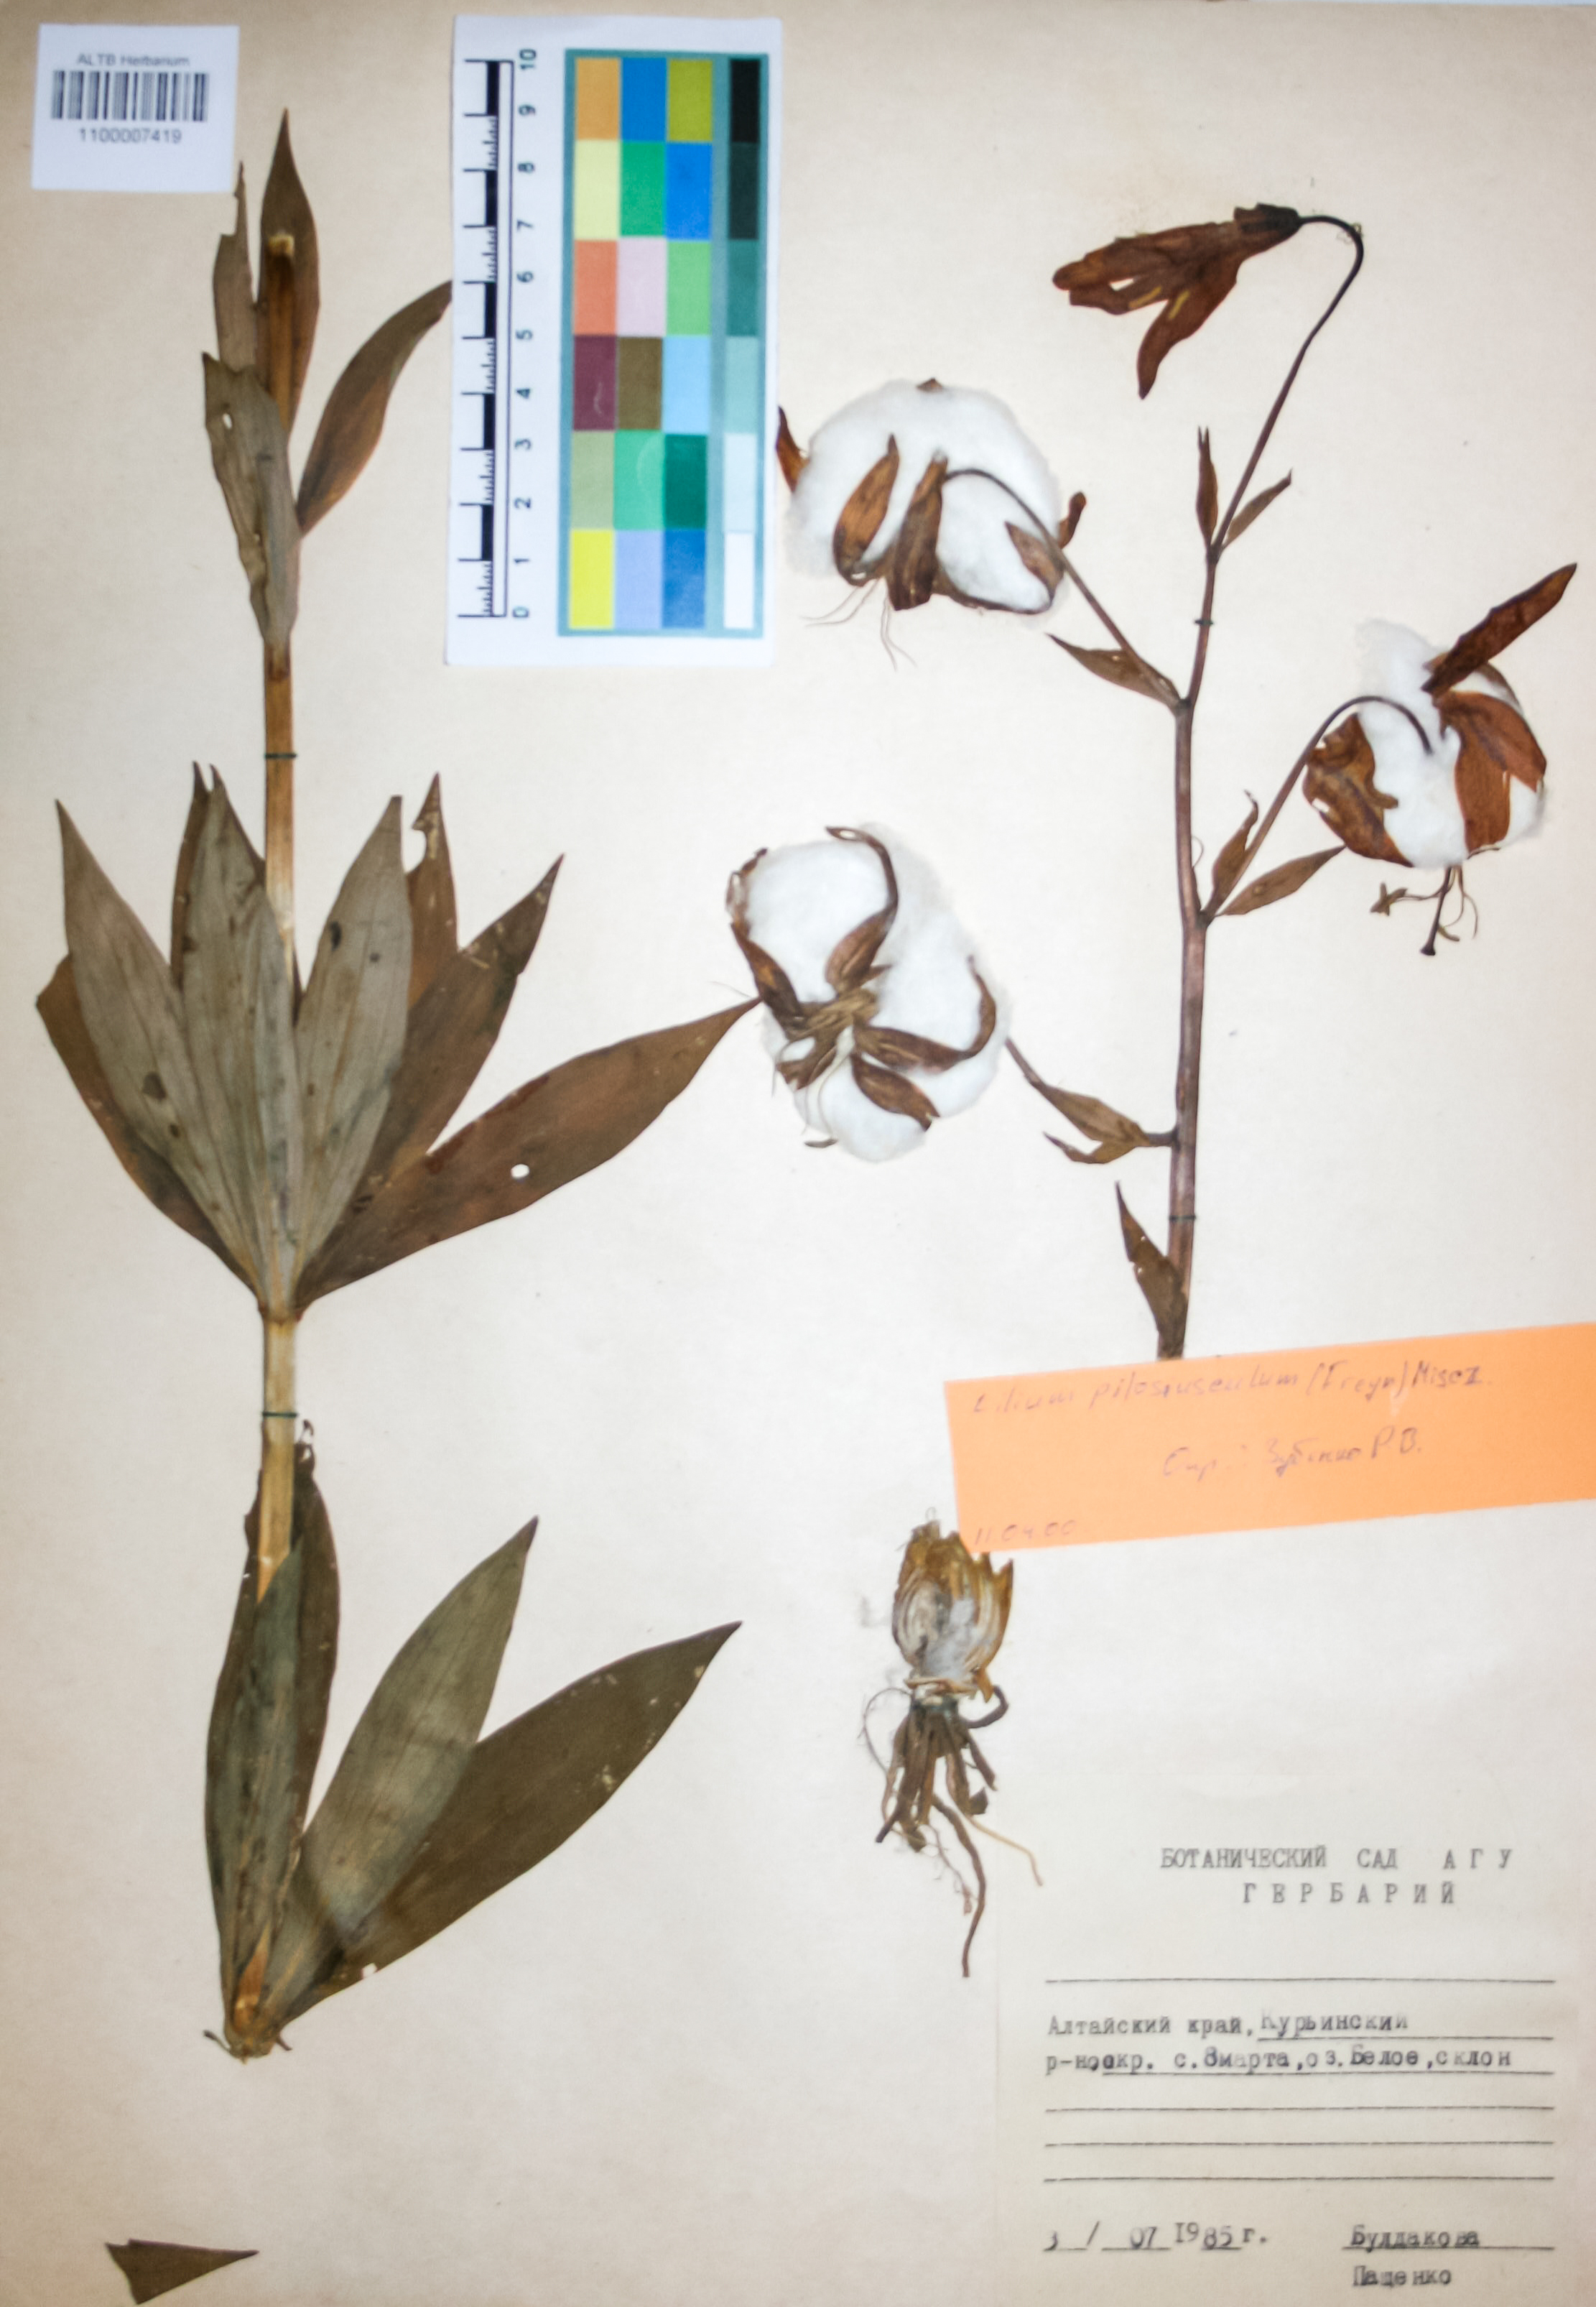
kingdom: Plantae
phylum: Tracheophyta
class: Liliopsida
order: Liliales
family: Liliaceae
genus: Lilium
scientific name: Lilium martagon
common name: Martagon lily
